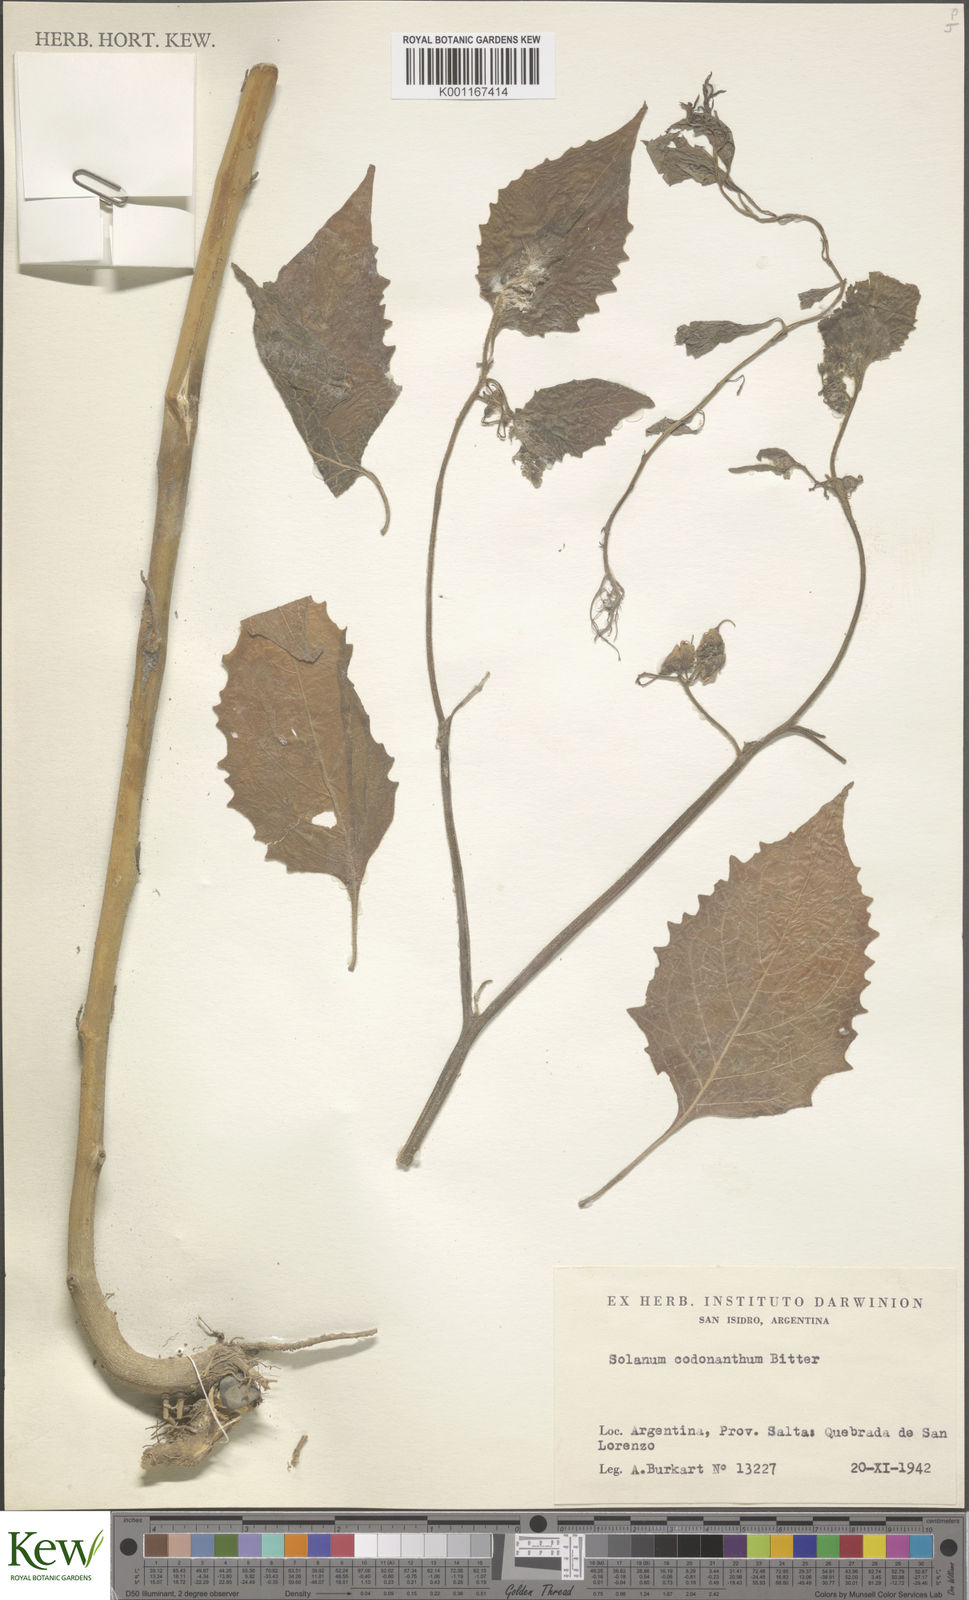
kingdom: Plantae
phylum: Tracheophyta
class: Magnoliopsida
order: Solanales
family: Solanaceae
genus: Solanum
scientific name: Solanum fiebrigii
